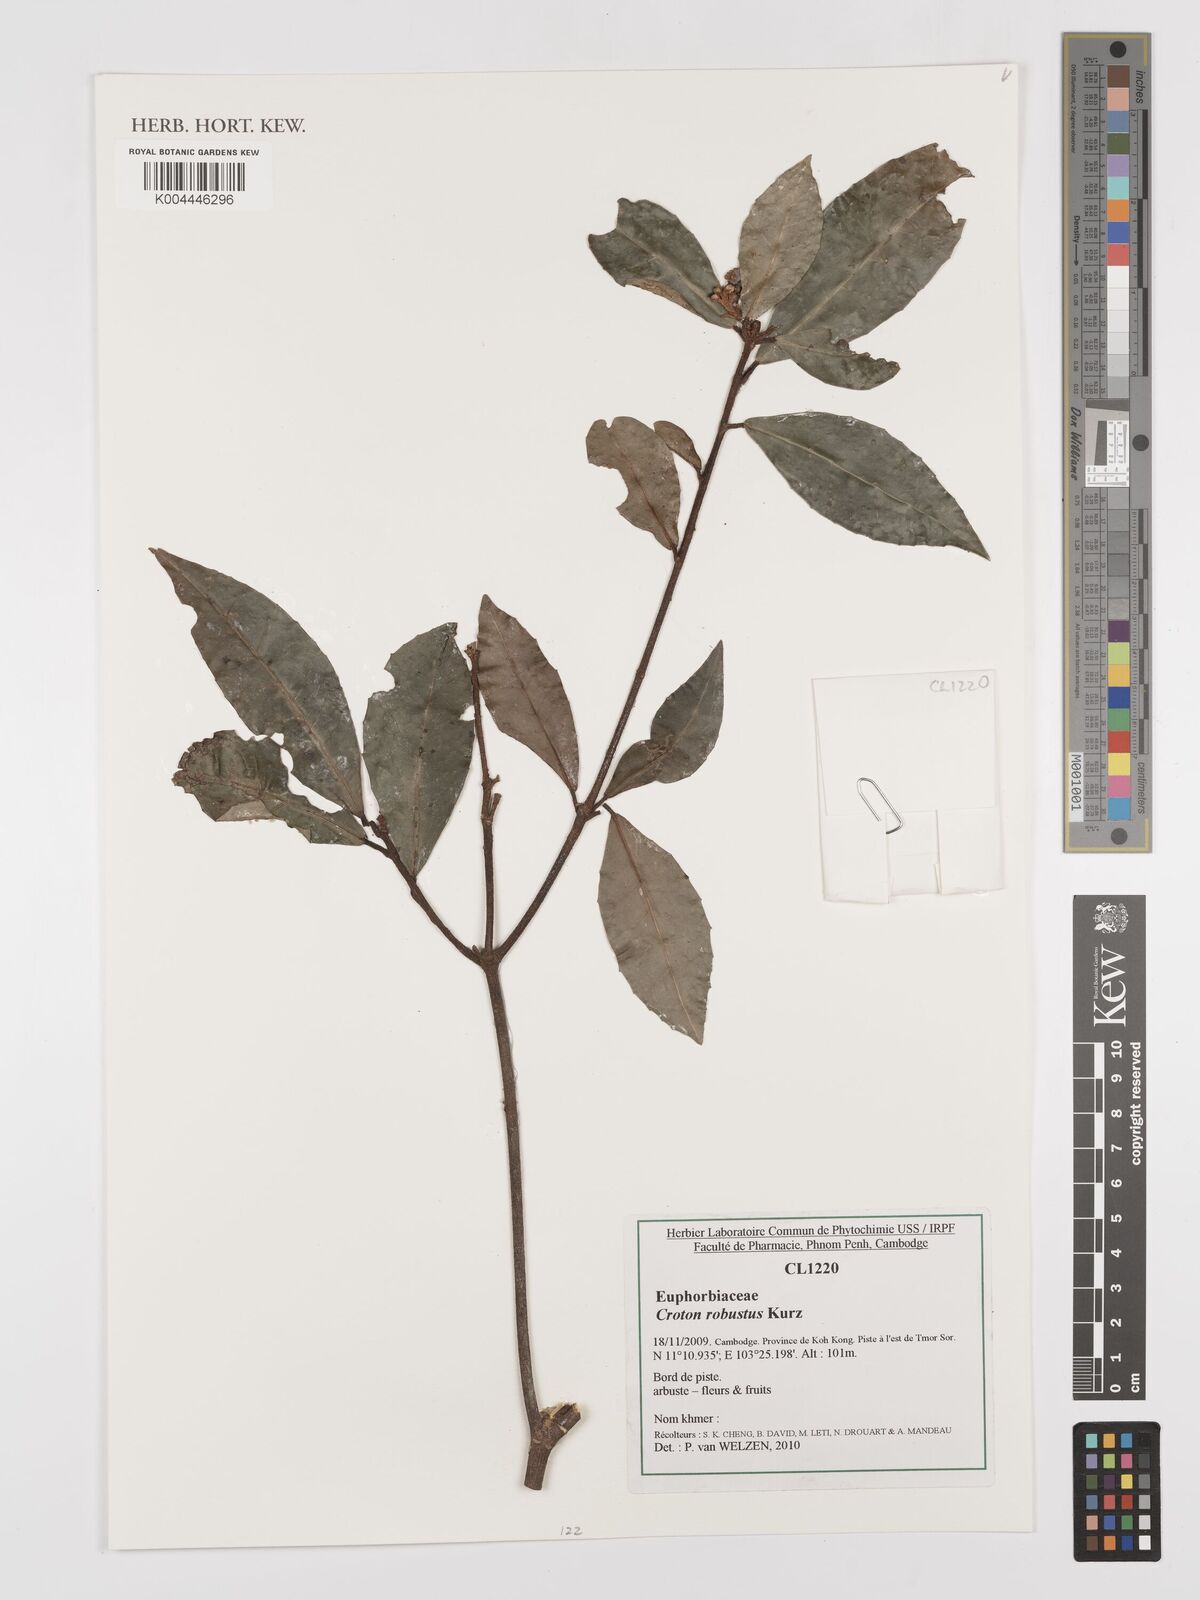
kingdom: Plantae
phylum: Tracheophyta
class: Magnoliopsida
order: Malpighiales
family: Euphorbiaceae
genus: Croton
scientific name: Croton robustus
